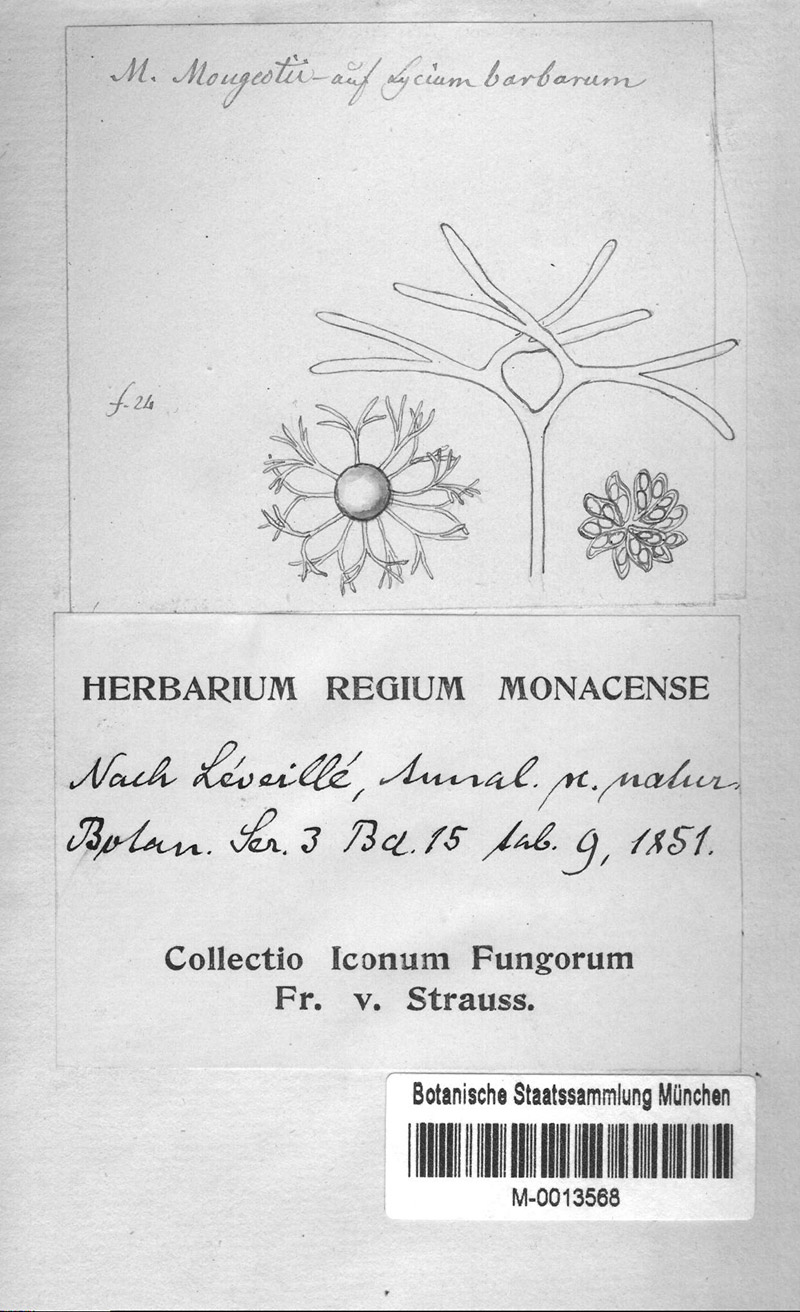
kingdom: Plantae
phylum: Tracheophyta
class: Magnoliopsida
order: Solanales
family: Solanaceae
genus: Lycium
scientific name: Lycium barbarum
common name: Duke of argyll's teaplant
